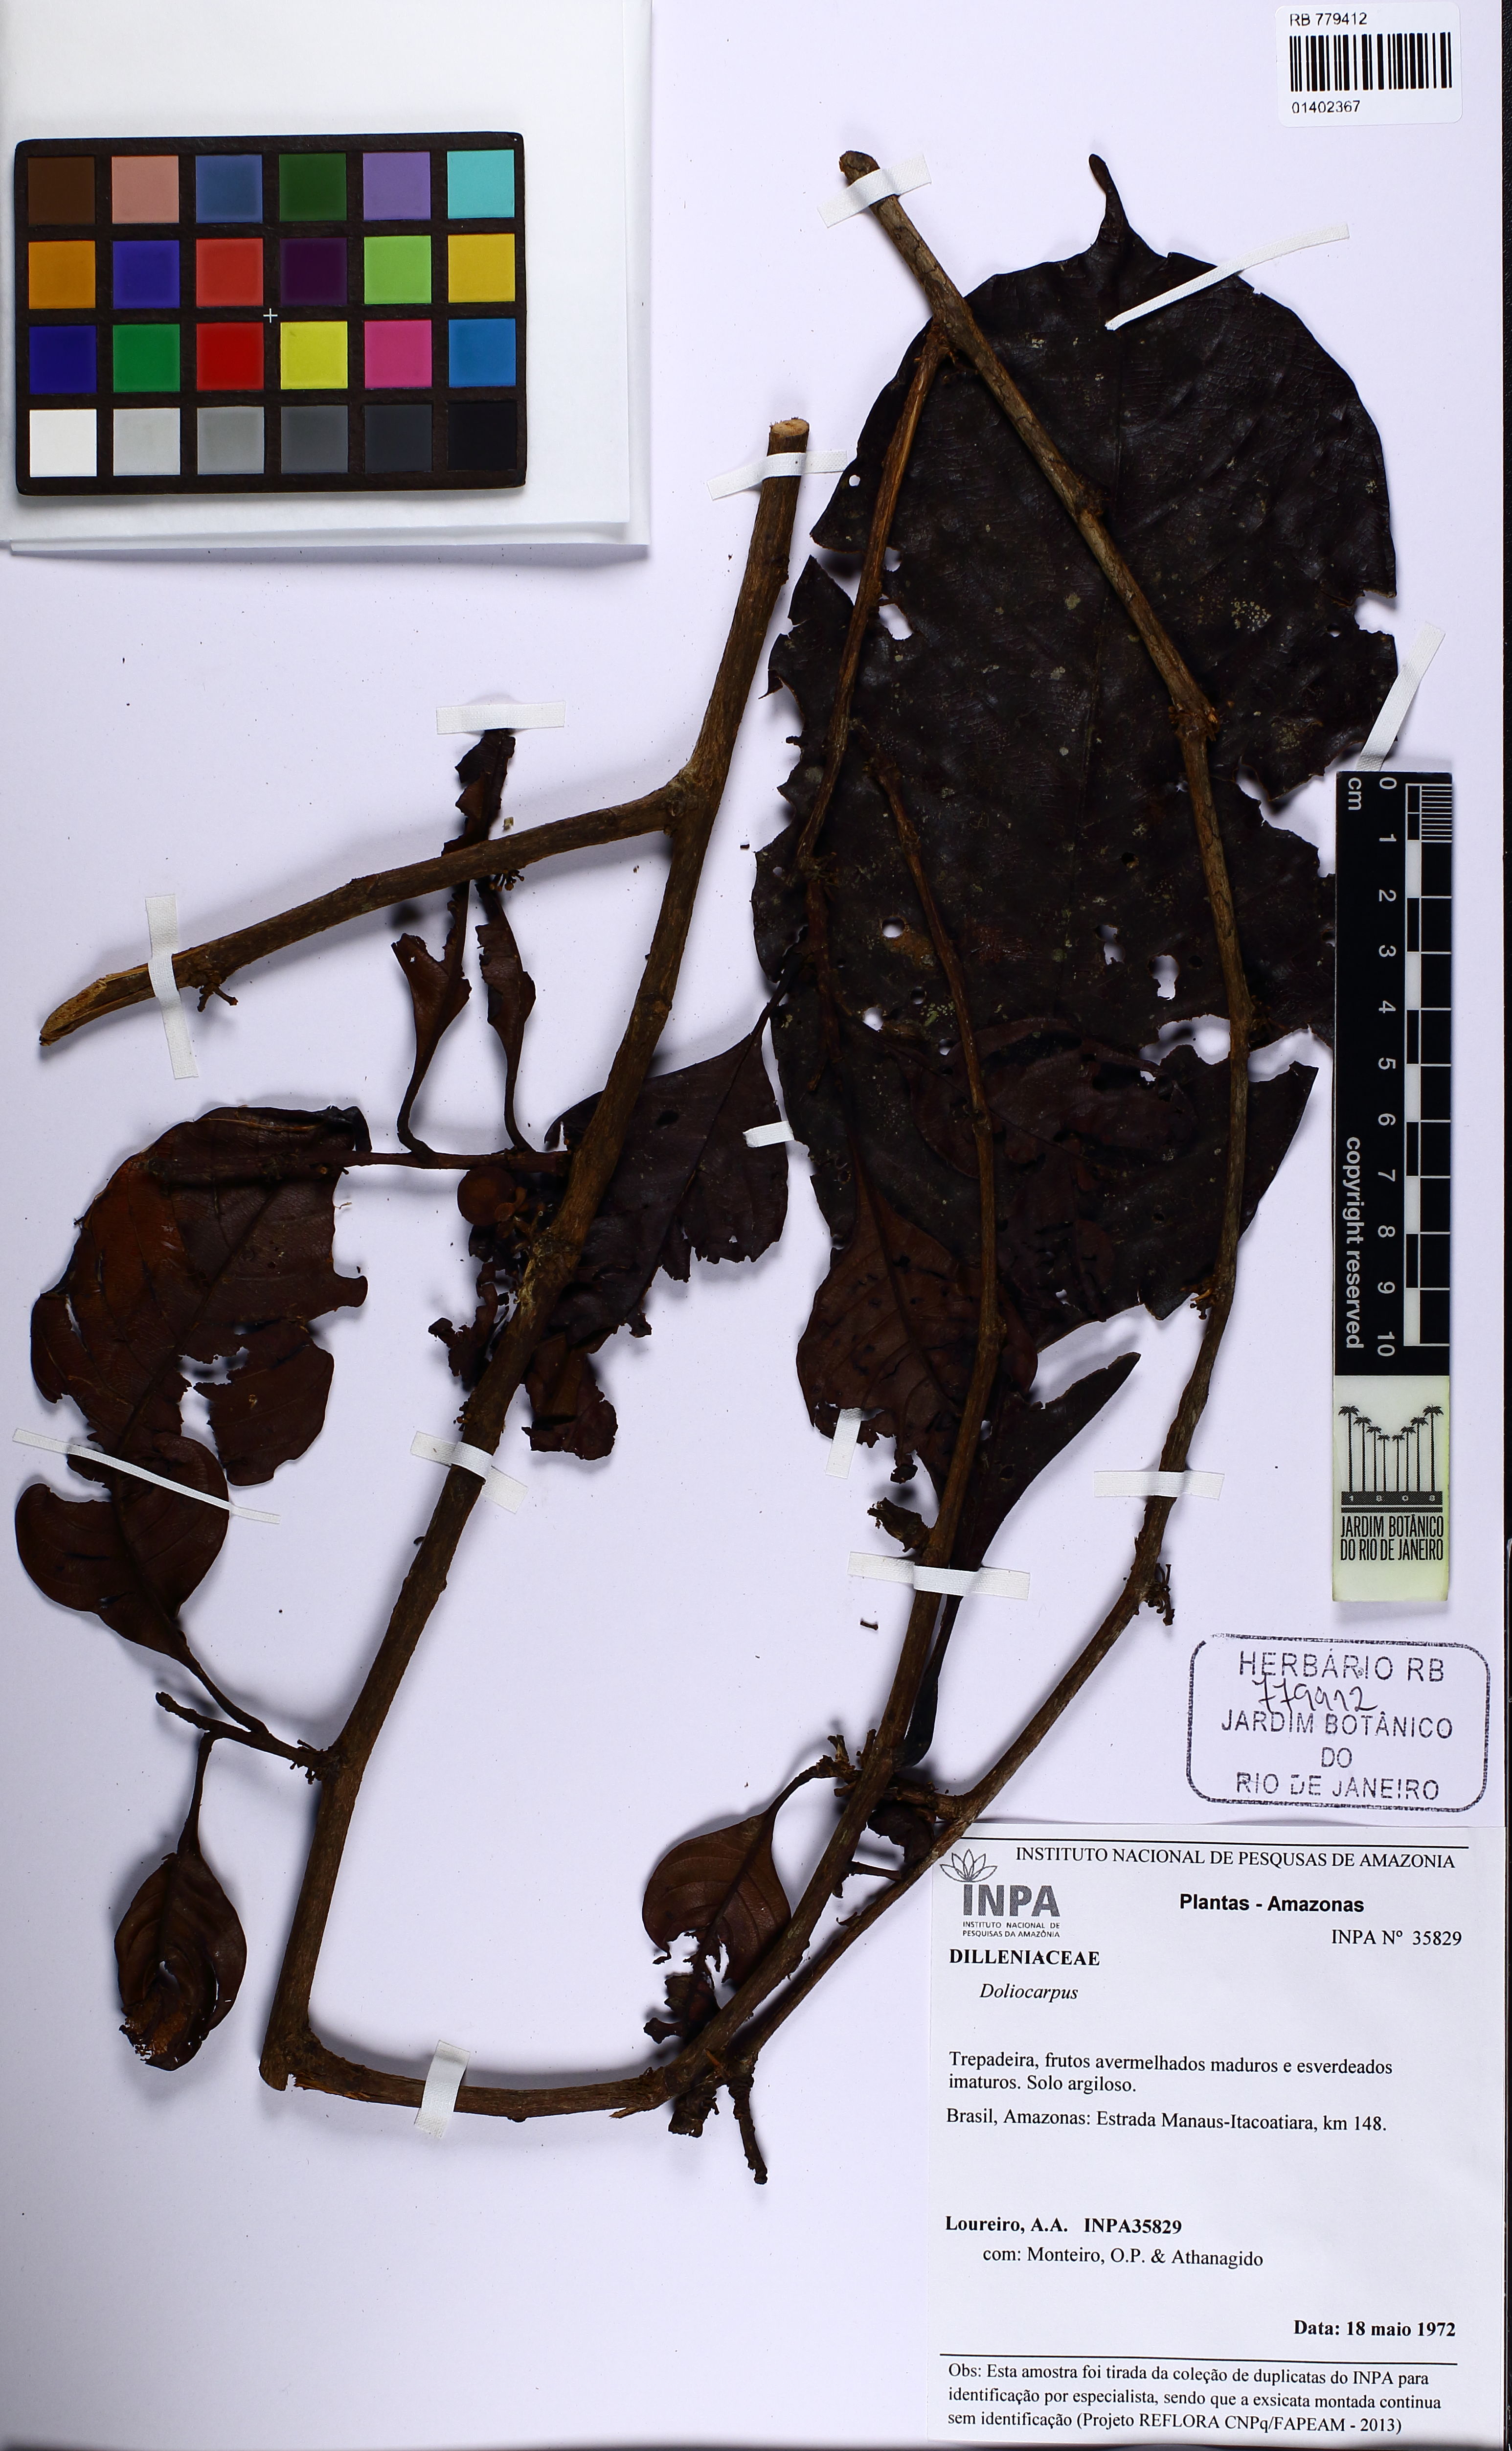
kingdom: Plantae
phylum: Tracheophyta
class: Magnoliopsida
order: Dilleniales
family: Dilleniaceae
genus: Doliocarpus
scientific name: Doliocarpus
